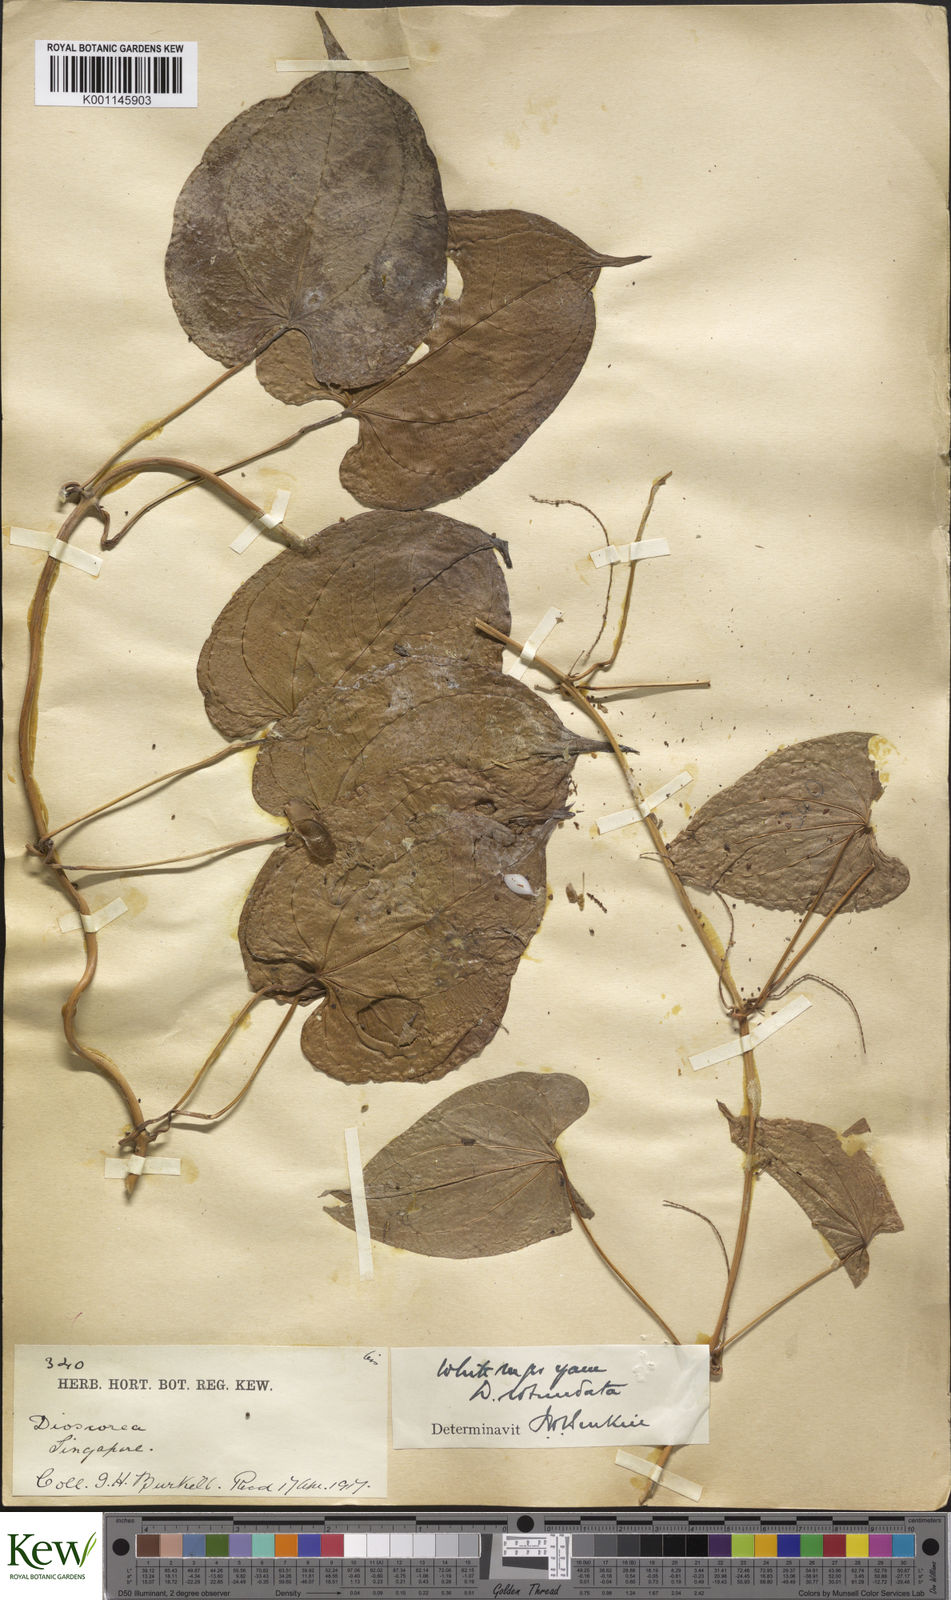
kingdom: Plantae
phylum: Tracheophyta
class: Liliopsida
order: Dioscoreales
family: Dioscoreaceae
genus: Dioscorea
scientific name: Dioscorea cayenensis
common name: Attoto yam
